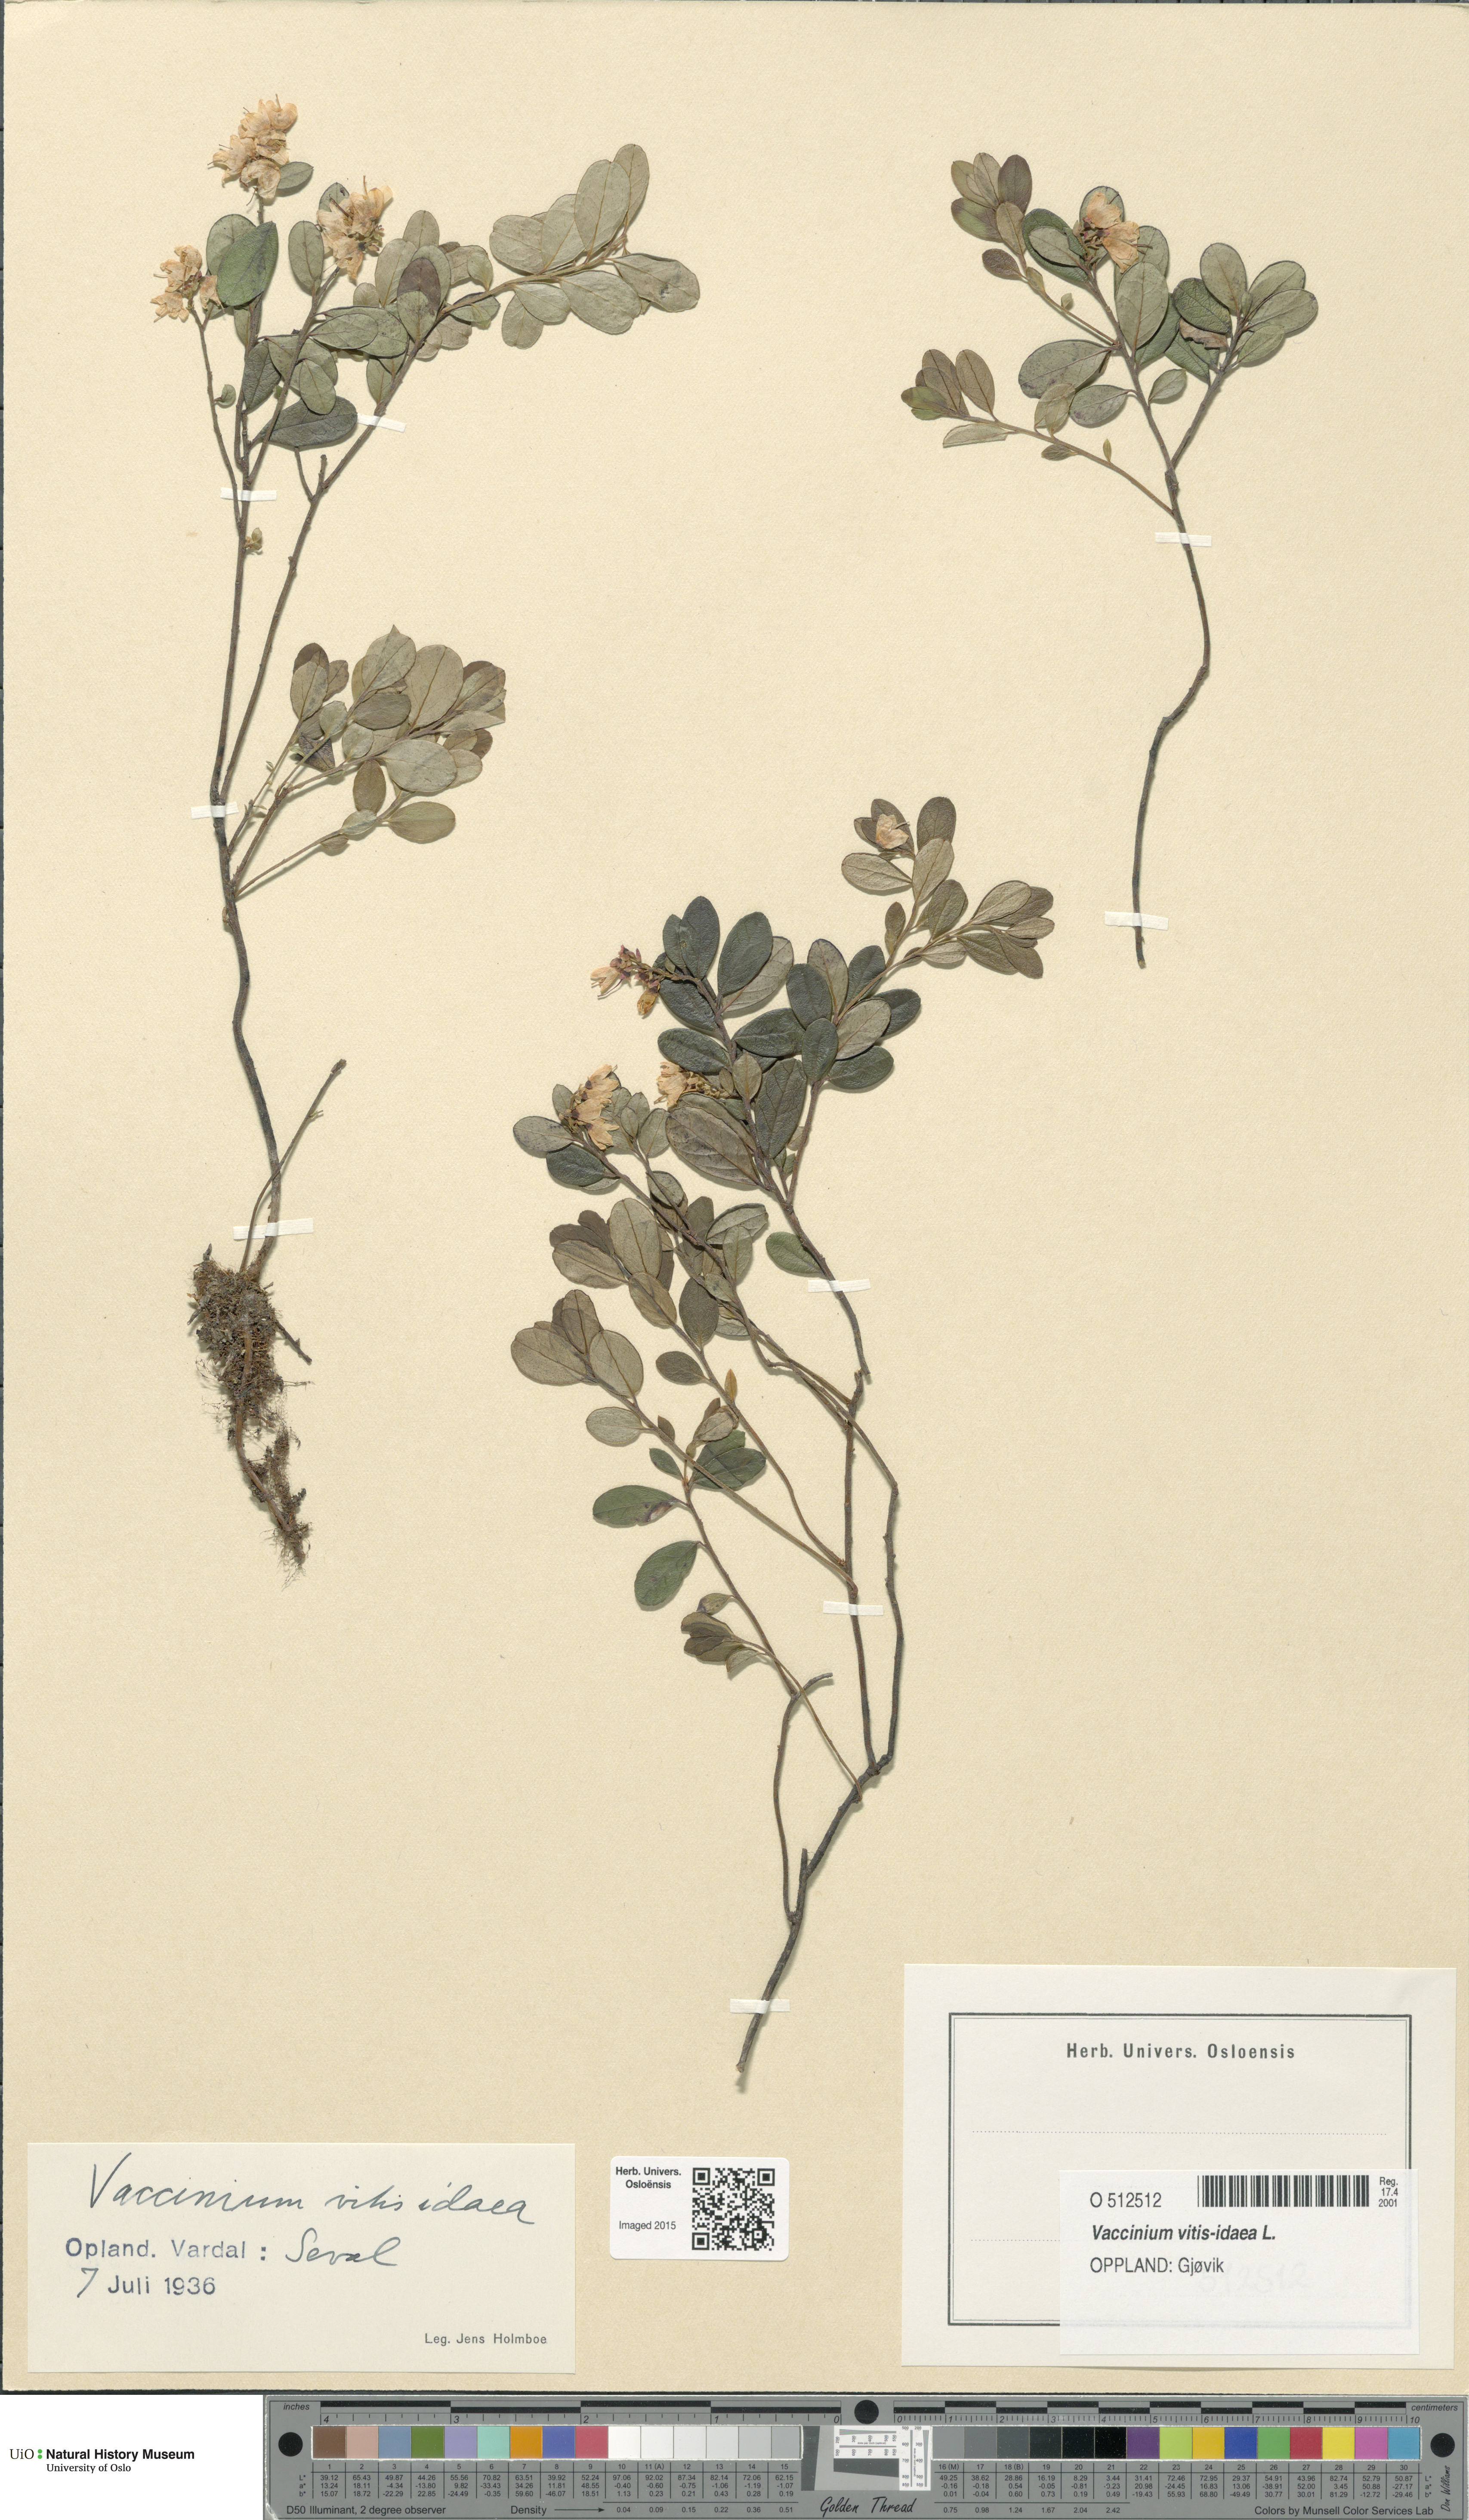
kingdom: Plantae
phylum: Tracheophyta
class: Magnoliopsida
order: Ericales
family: Ericaceae
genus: Vaccinium
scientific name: Vaccinium vitis-idaea
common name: Cowberry
